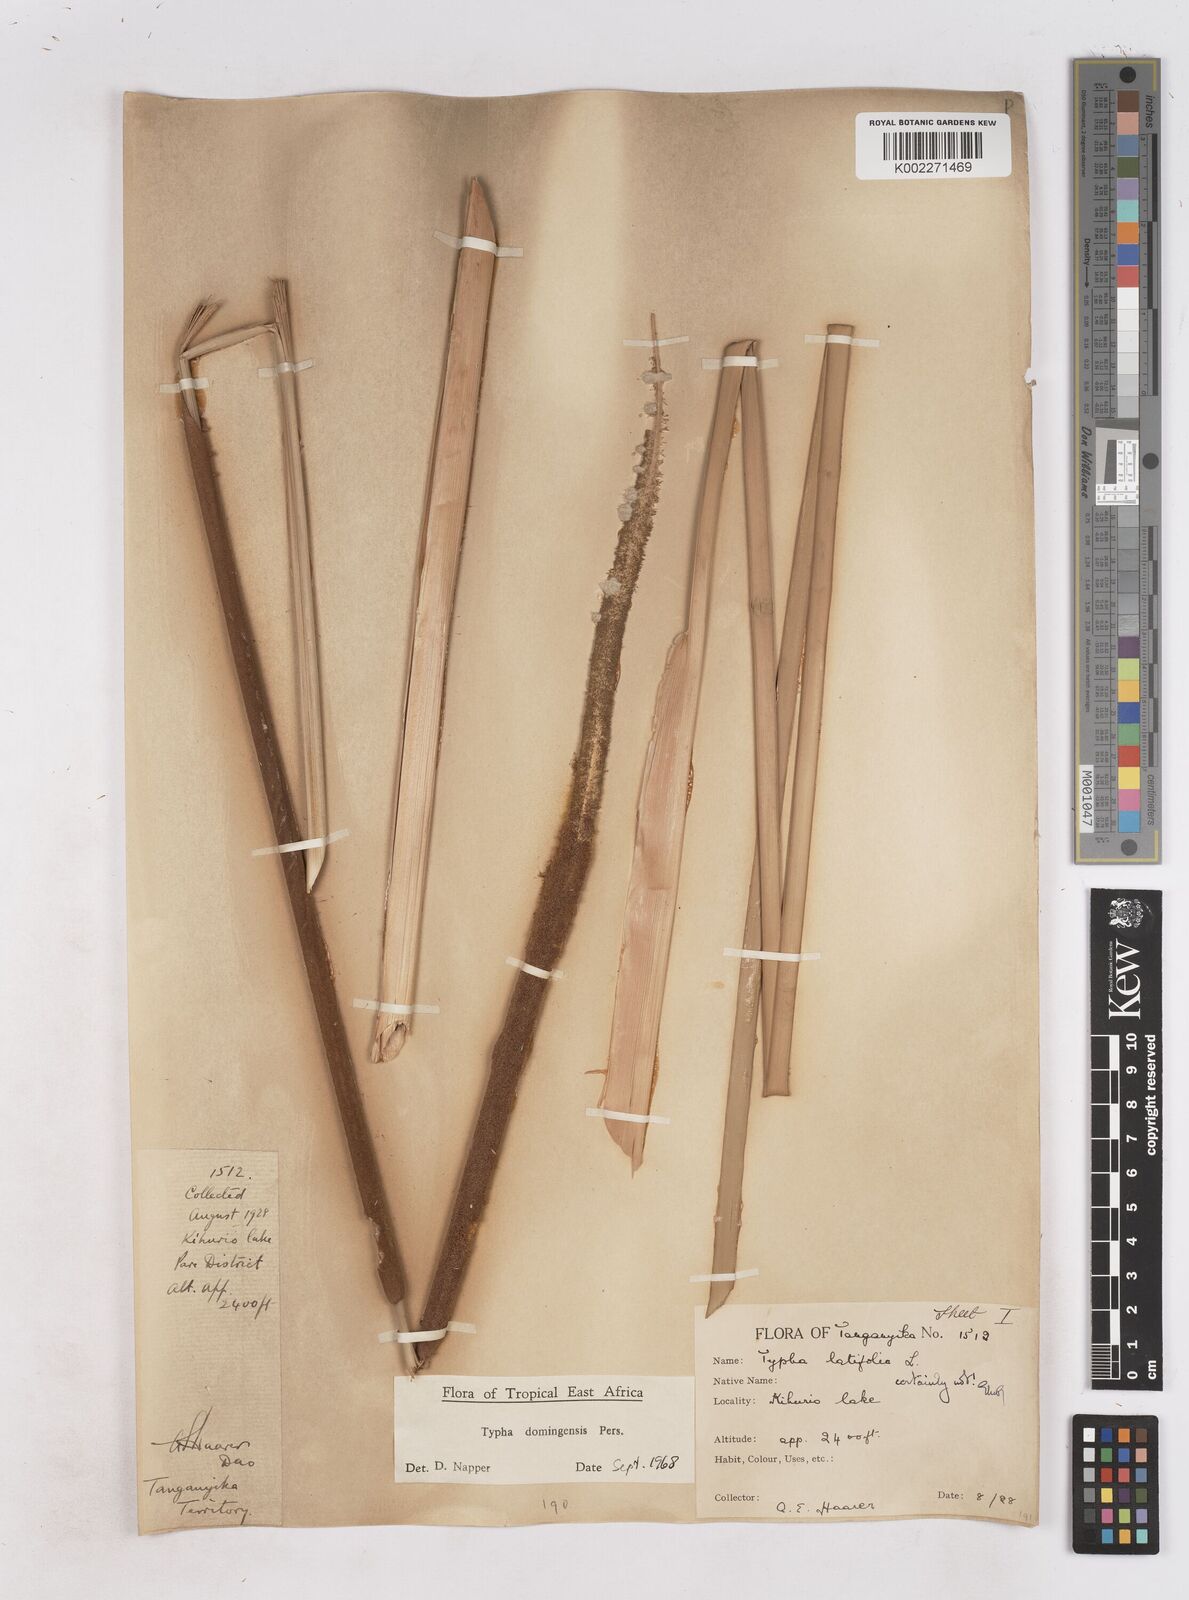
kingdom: Plantae
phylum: Tracheophyta
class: Liliopsida
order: Poales
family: Typhaceae
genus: Typha
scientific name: Typha domingensis
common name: Southern cattail
